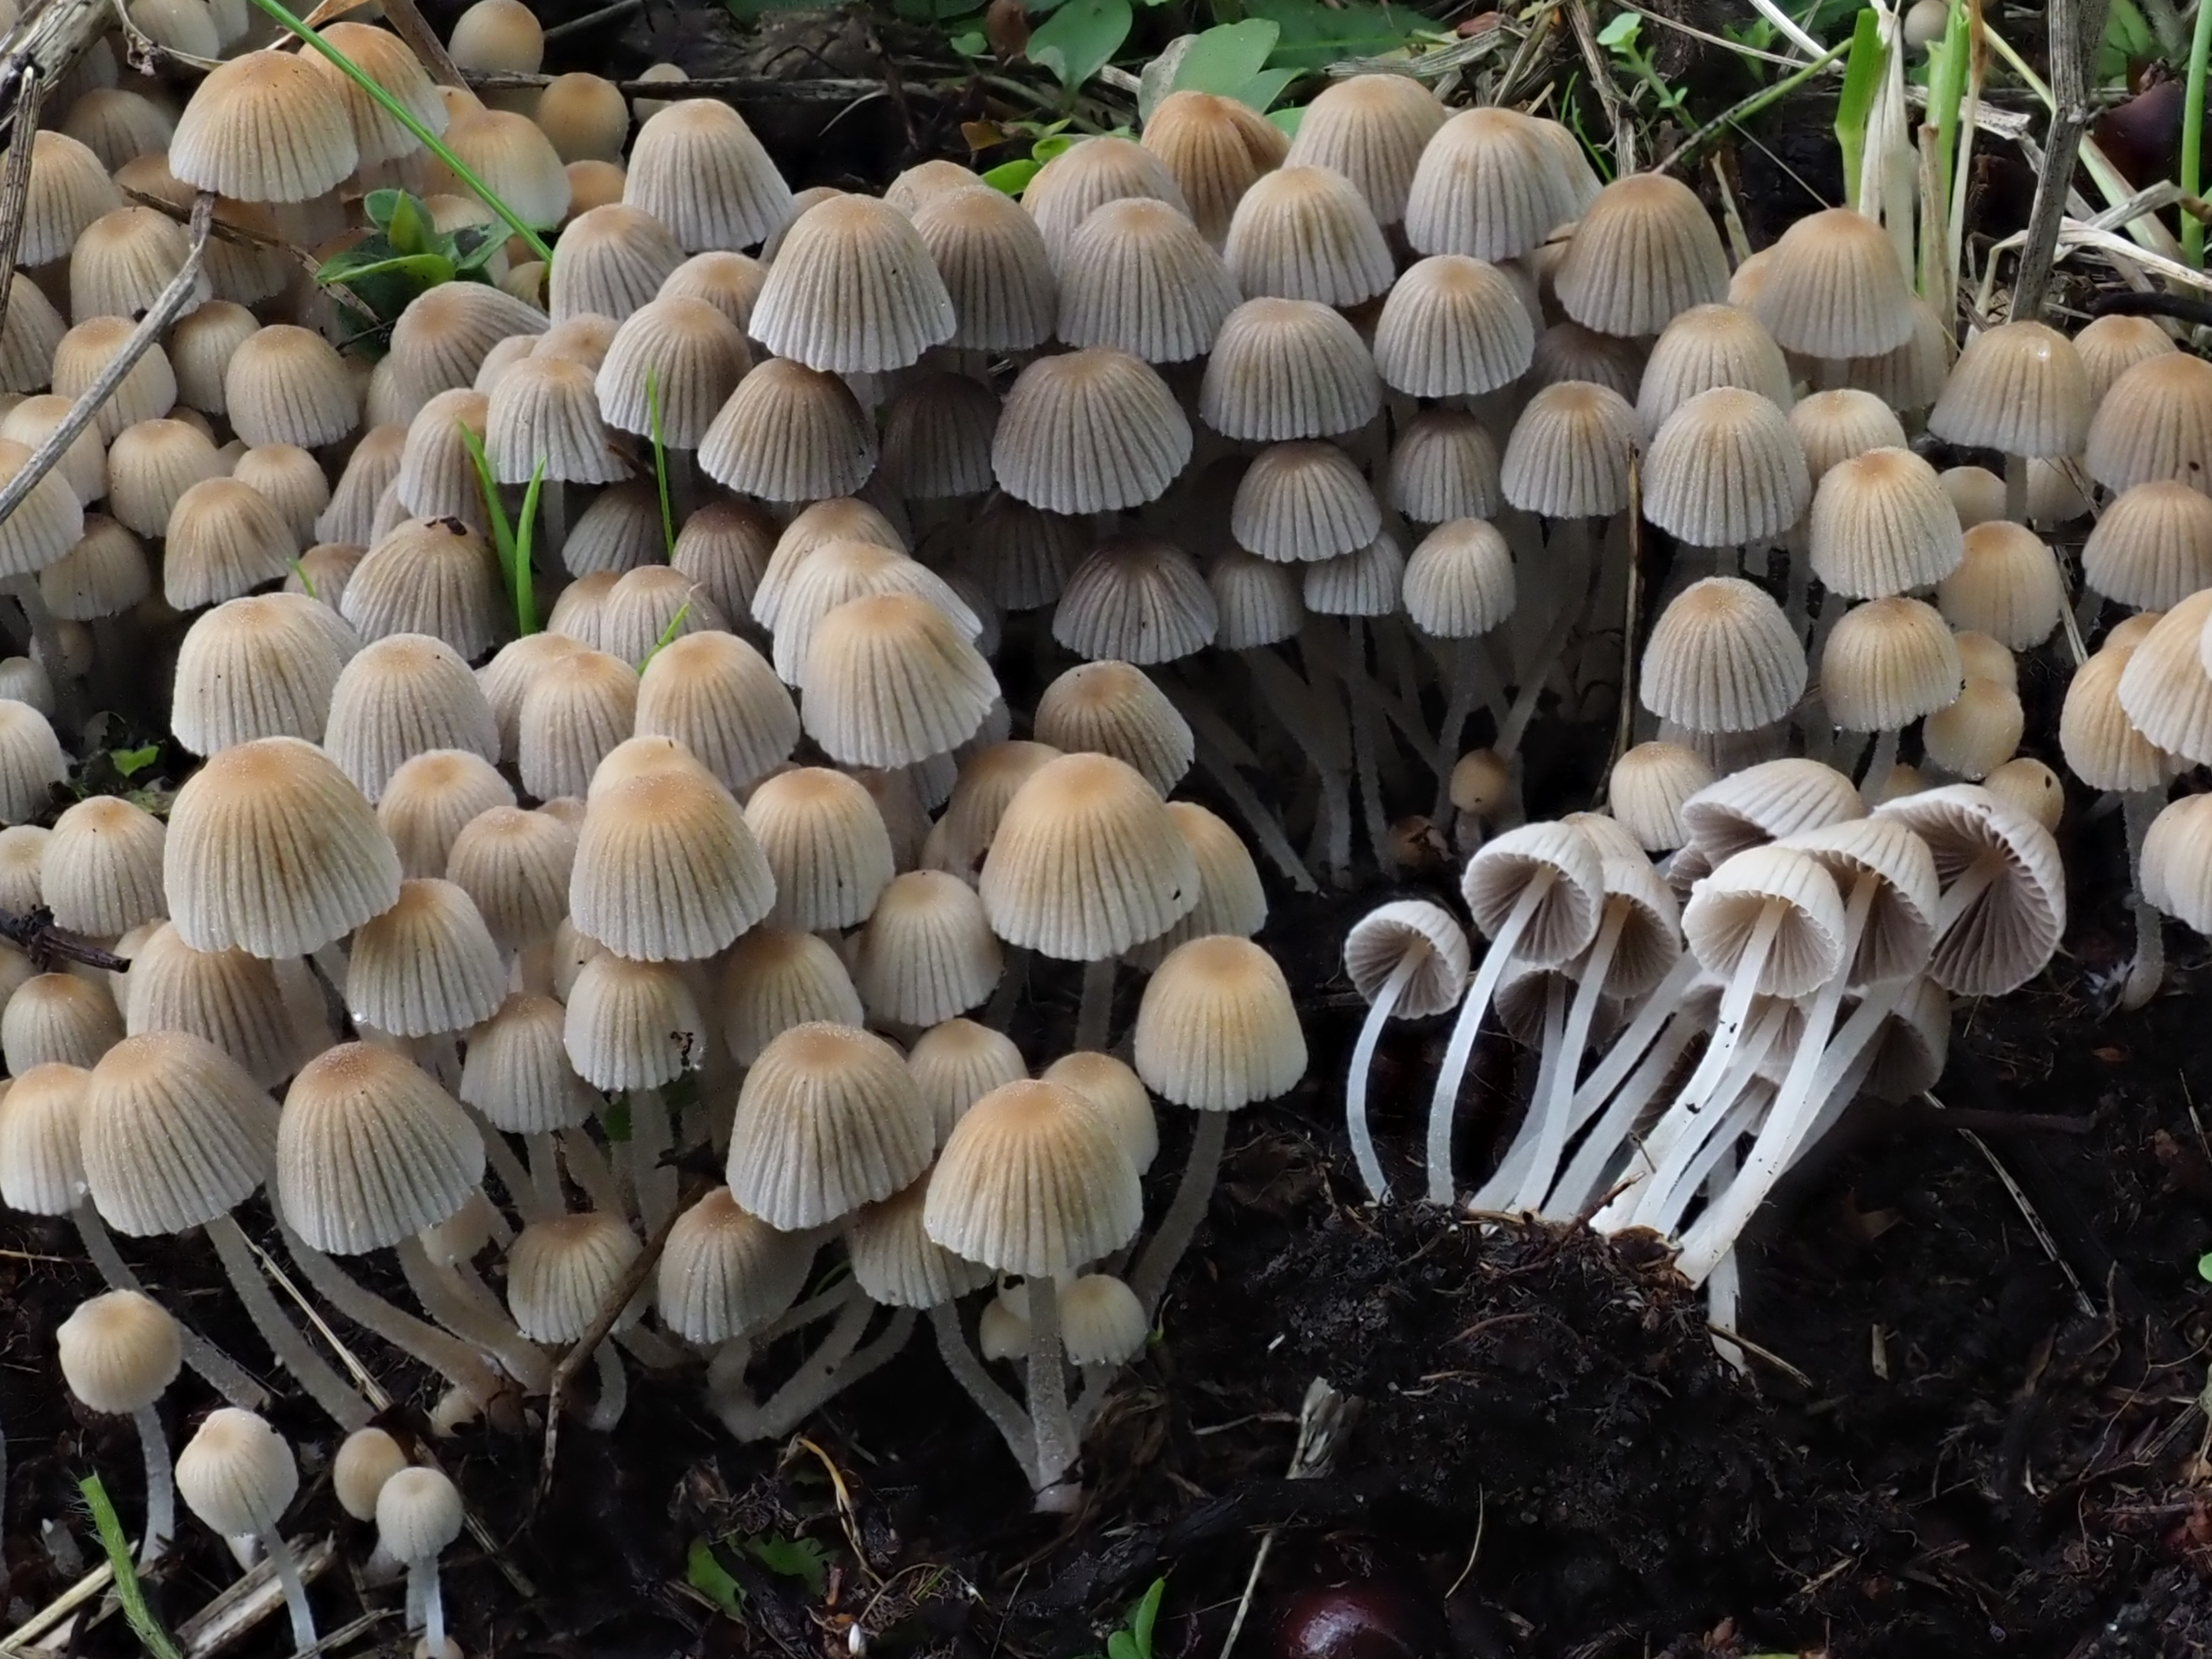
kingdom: Fungi
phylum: Basidiomycota
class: Agaricomycetes
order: Agaricales
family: Psathyrellaceae
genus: Coprinellus
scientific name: Coprinellus disseminatus
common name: Fairies' bonnets
